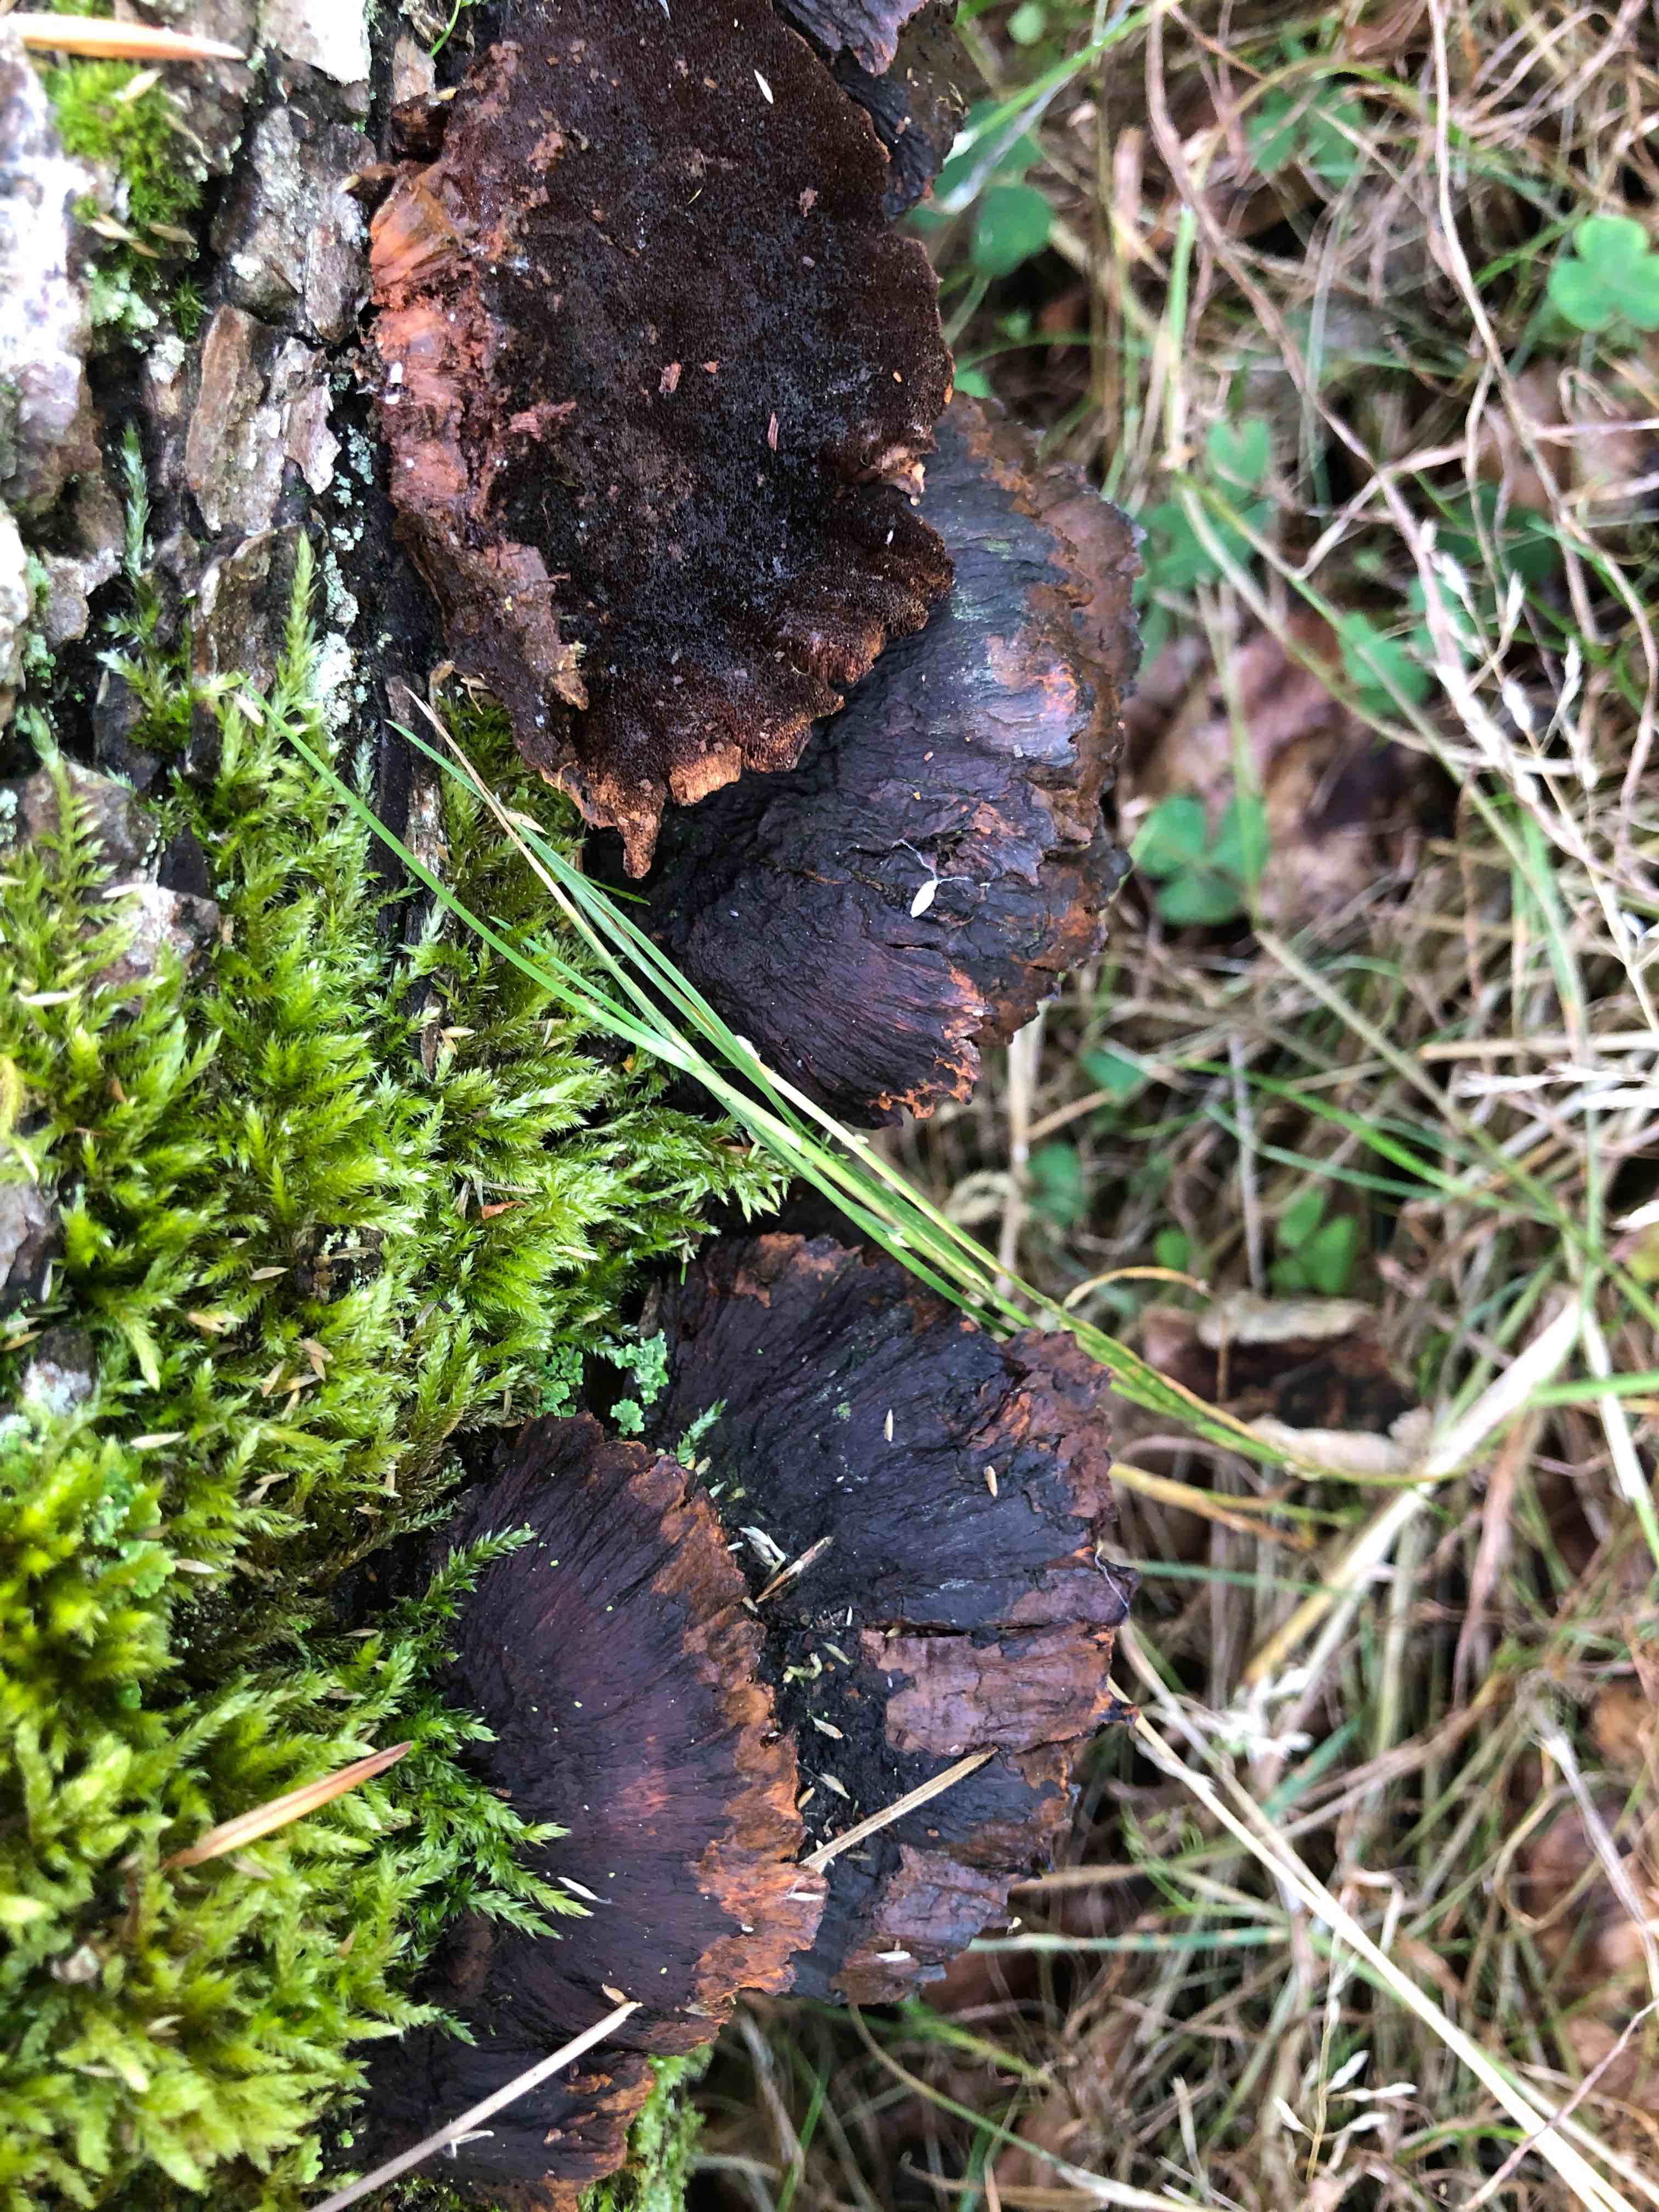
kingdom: Fungi
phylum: Basidiomycota
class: Agaricomycetes
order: Hymenochaetales
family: Hymenochaetaceae
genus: Xanthoporia
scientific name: Xanthoporia radiata
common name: elle-spejlporesvamp
